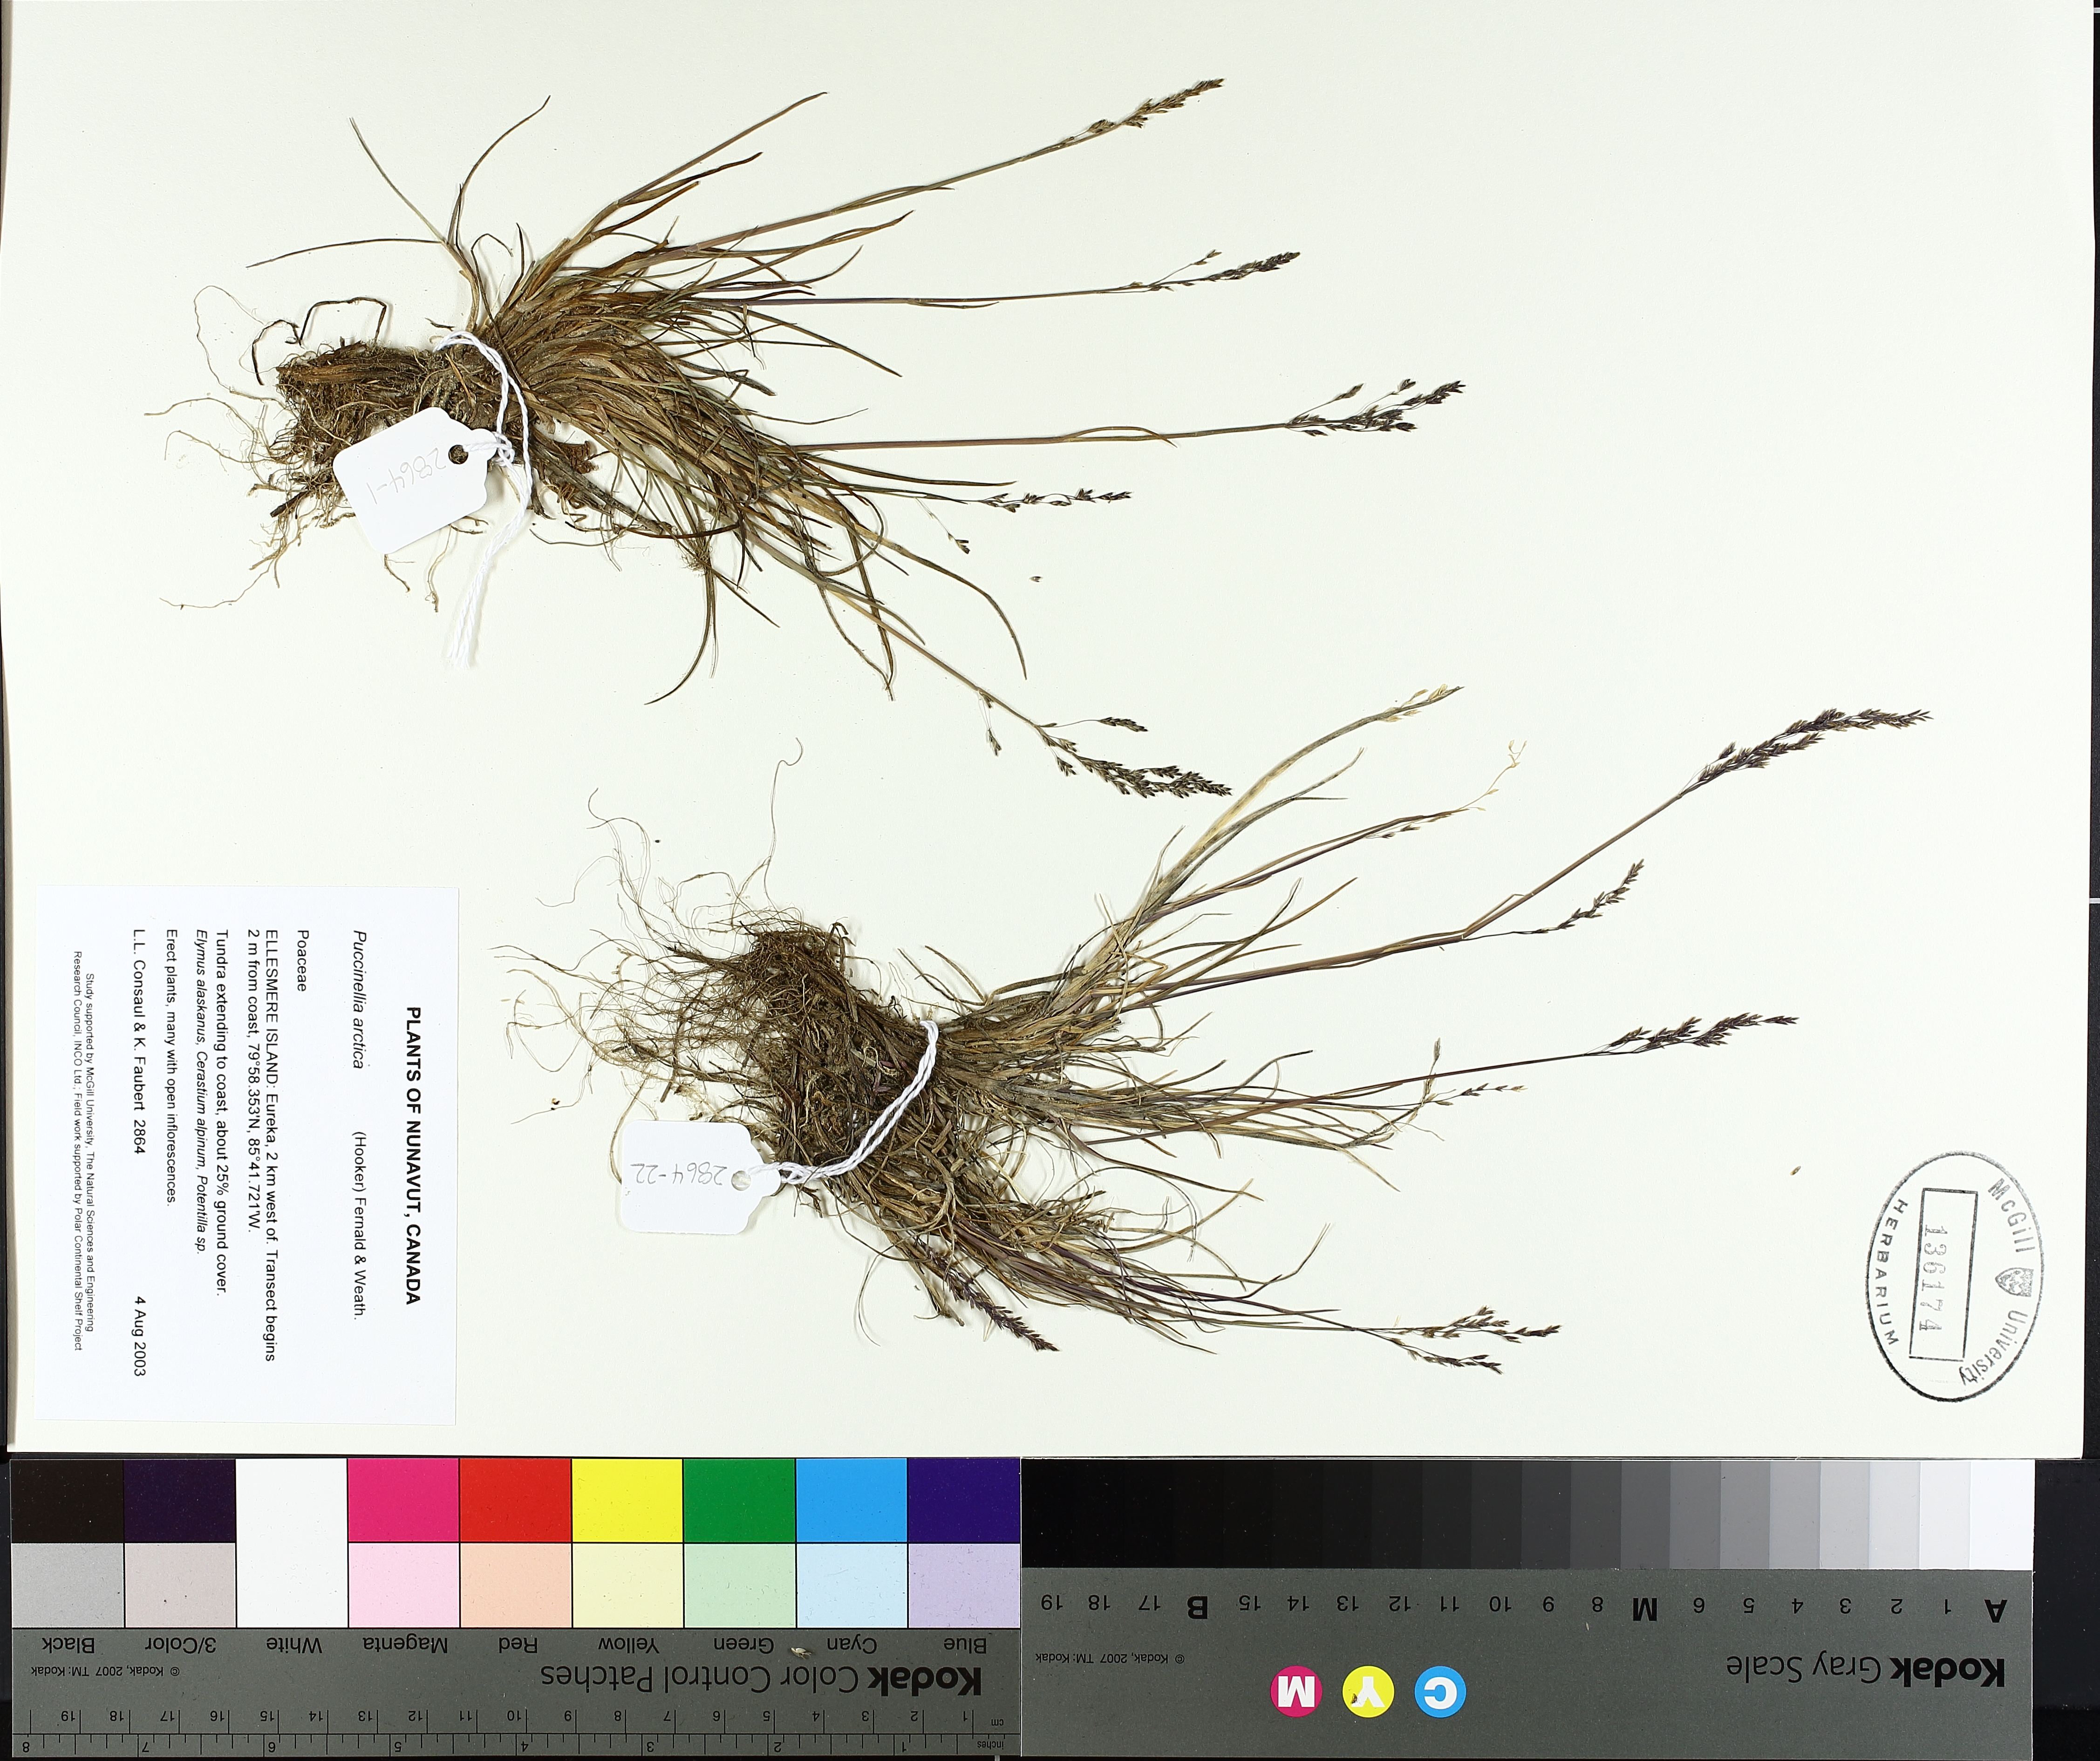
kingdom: Plantae
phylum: Tracheophyta
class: Liliopsida
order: Poales
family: Poaceae
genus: Puccinellia
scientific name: Puccinellia arctica
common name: Arctic alkali grass
